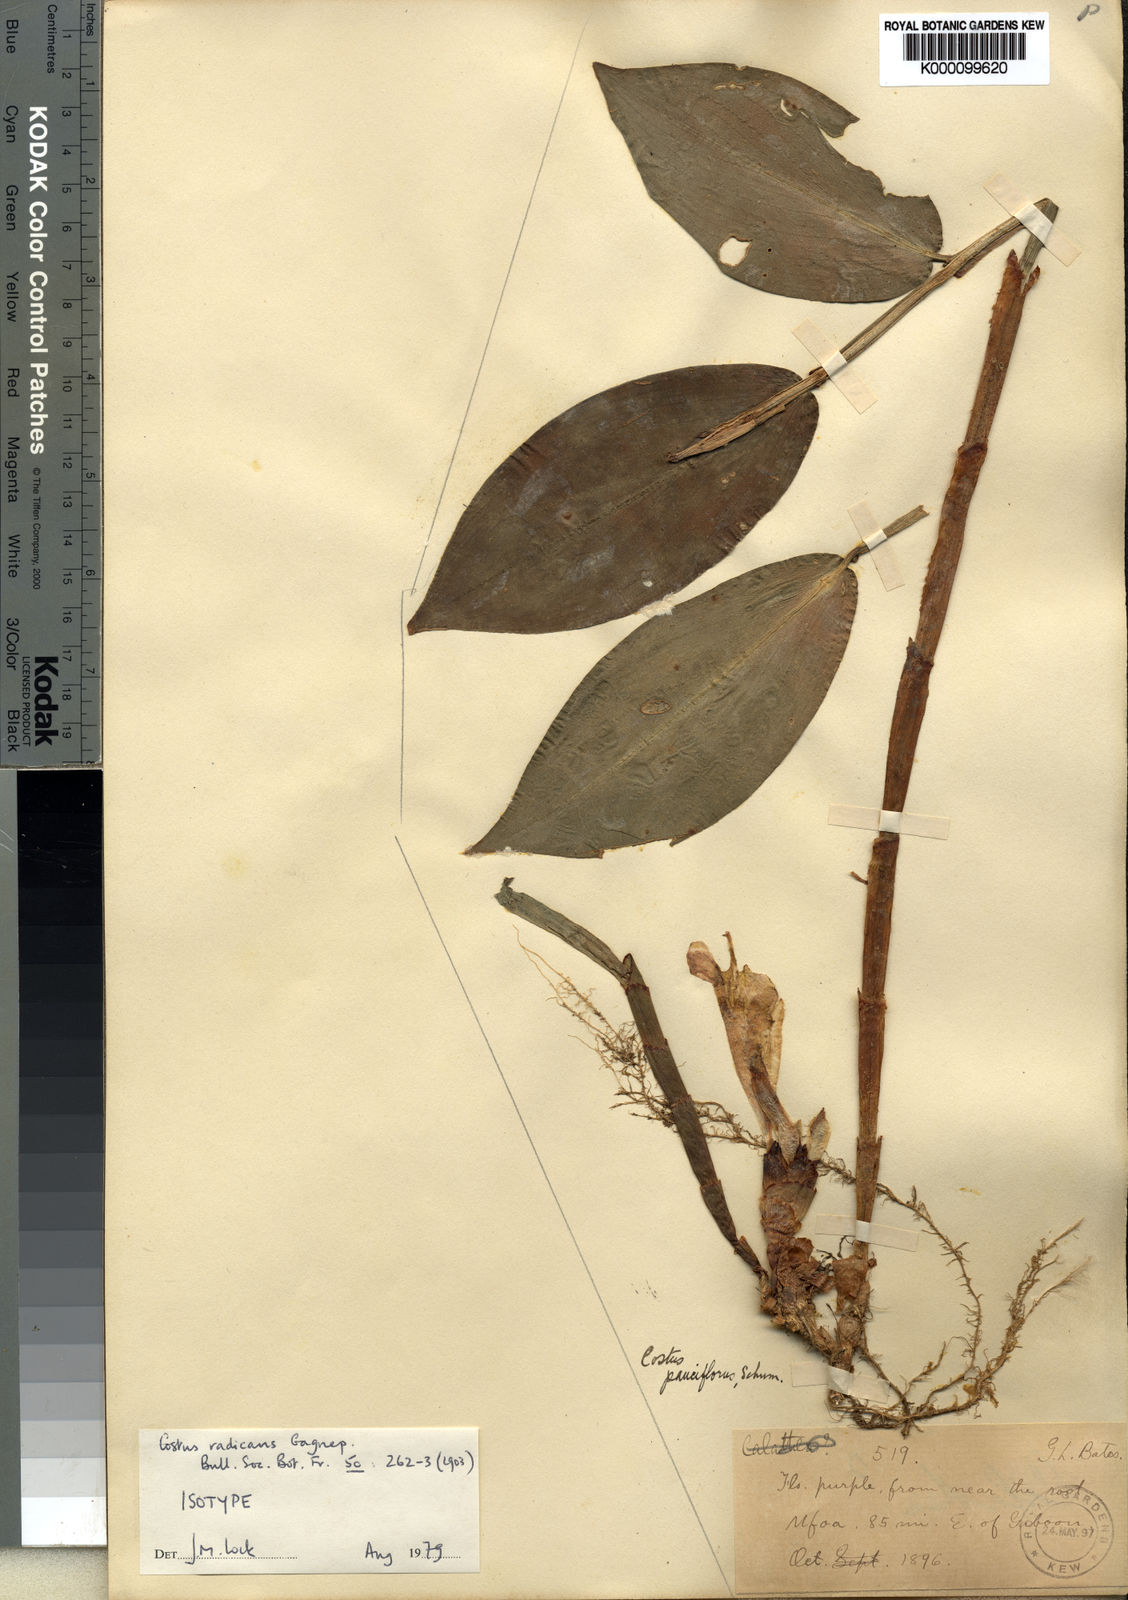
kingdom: Plantae
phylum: Tracheophyta
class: Liliopsida
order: Zingiberales
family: Costaceae
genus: Costus
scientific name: Costus tappenbeckianus
